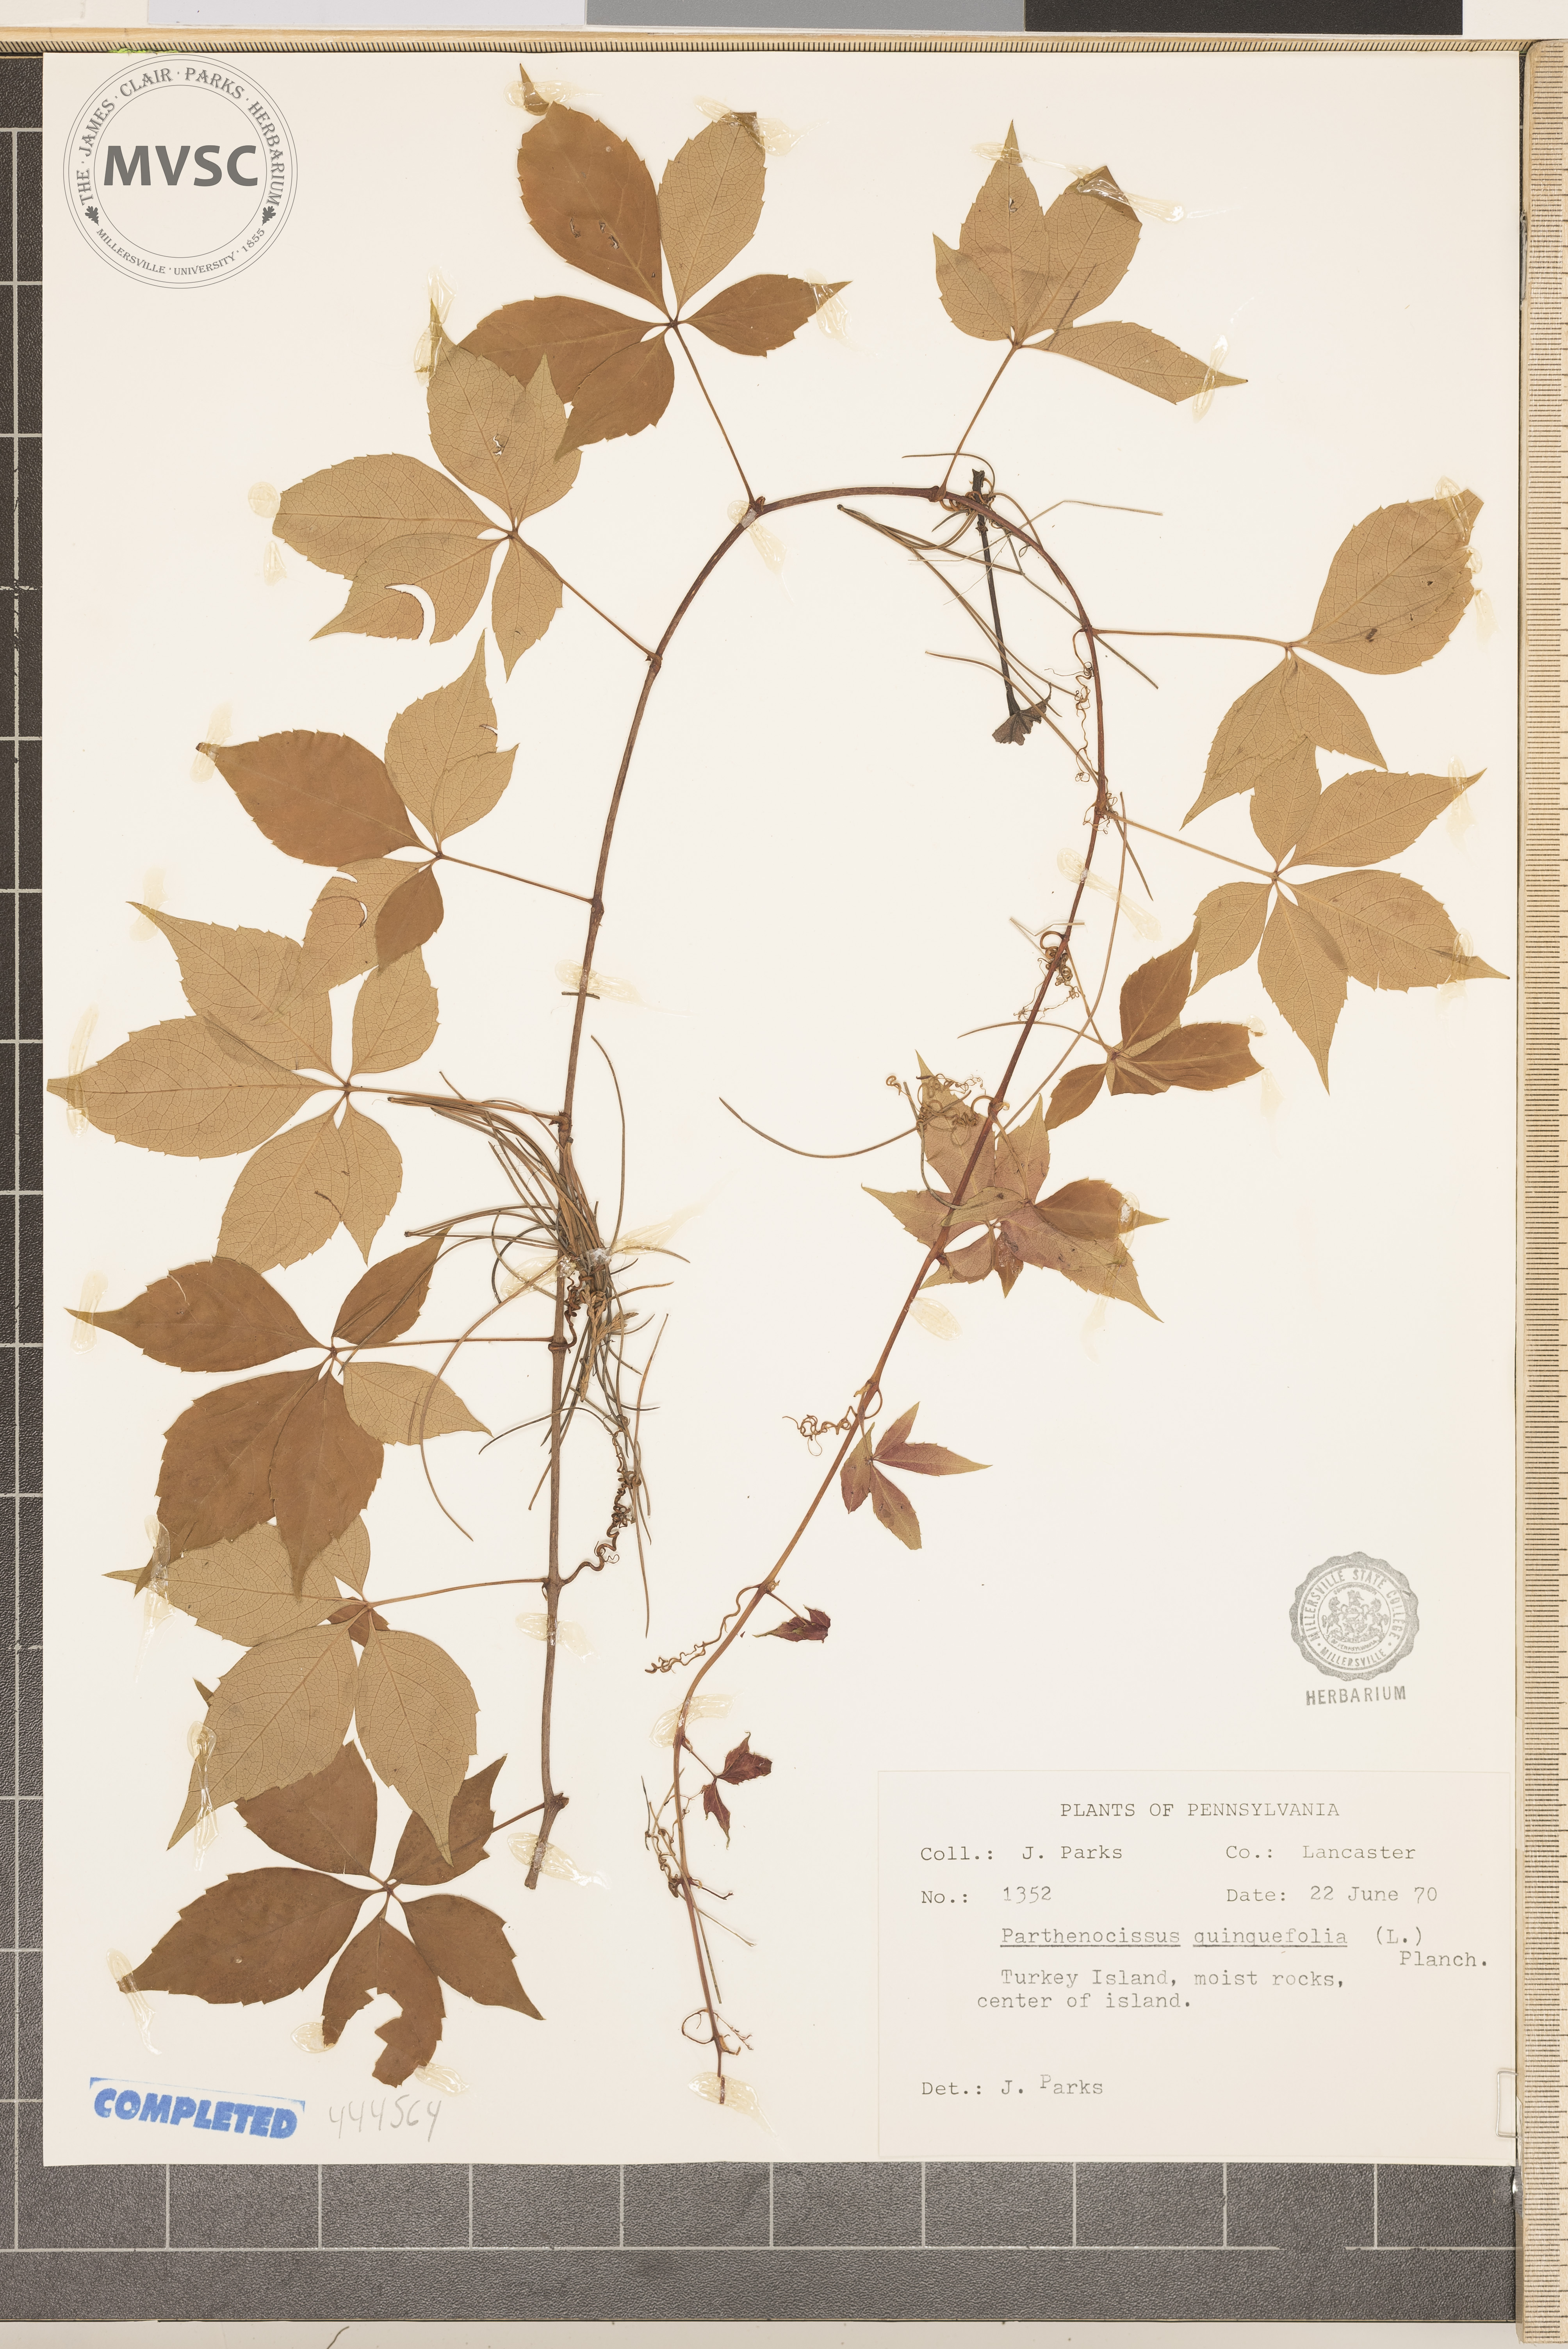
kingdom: Plantae
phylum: Tracheophyta
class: Magnoliopsida
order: Vitales
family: Vitaceae
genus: Parthenocissus
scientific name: Parthenocissus quinquefolia
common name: Virginia-creeper
